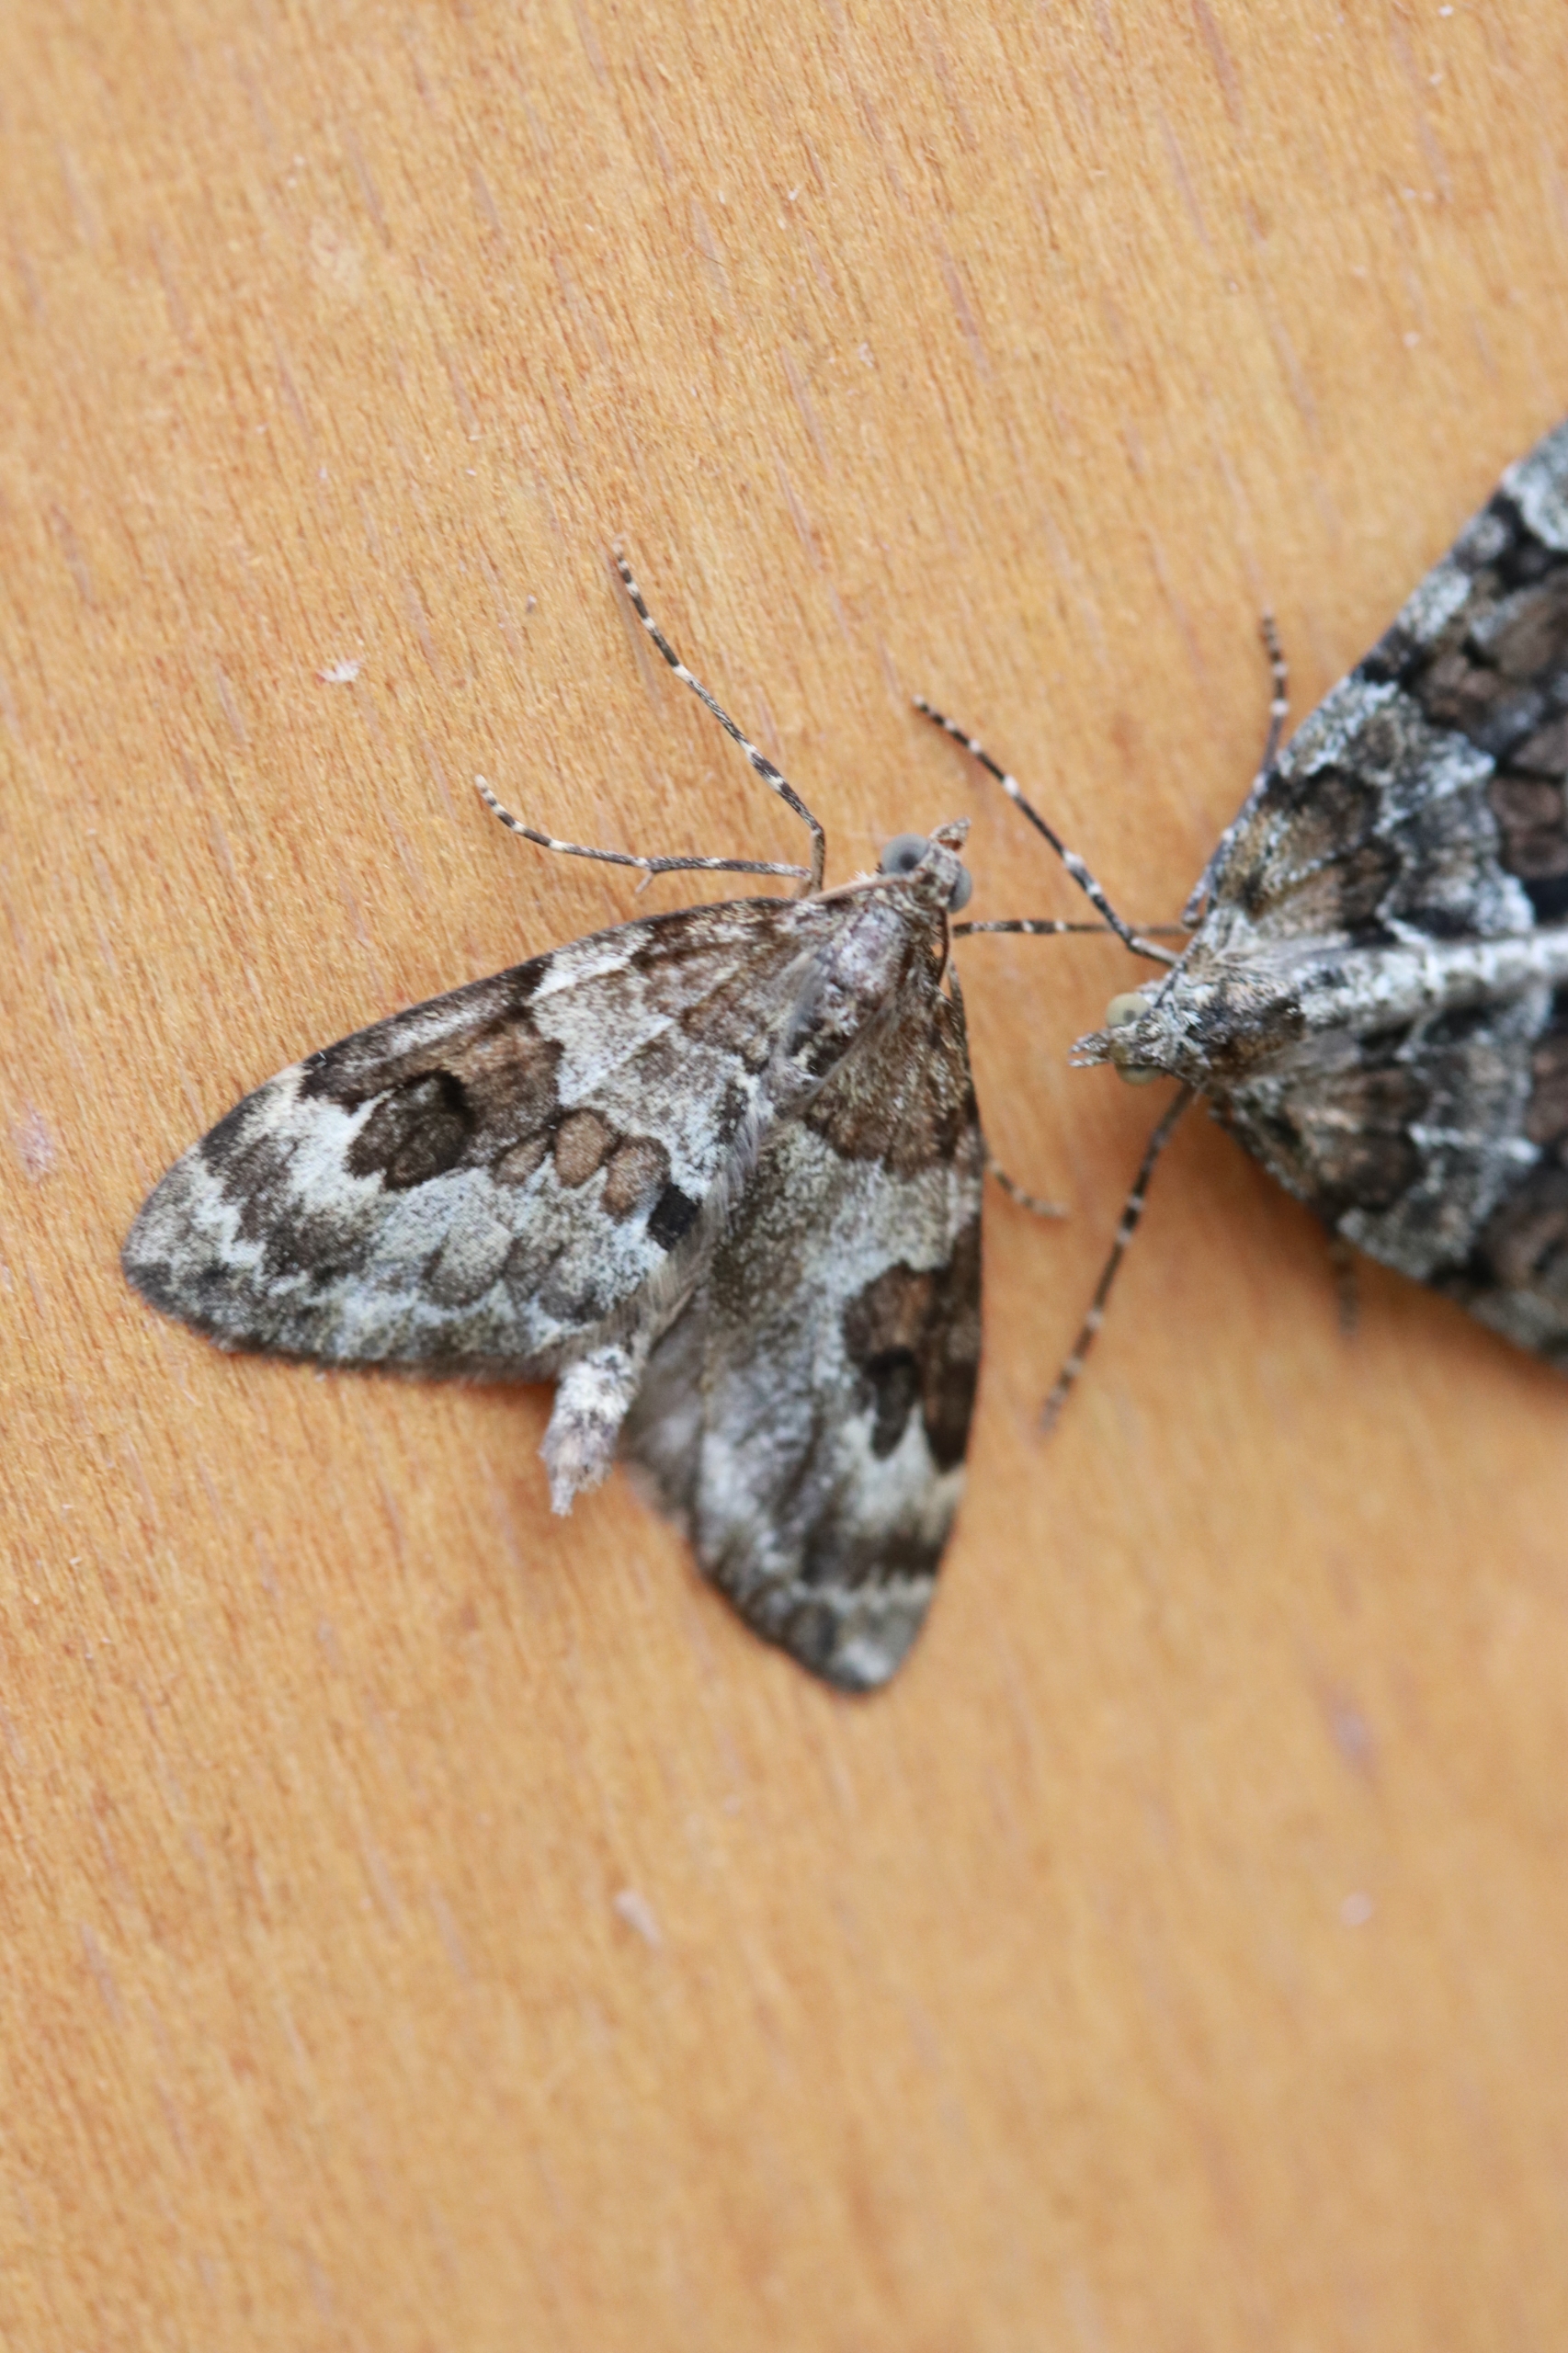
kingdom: Animalia
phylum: Arthropoda
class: Insecta
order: Lepidoptera
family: Geometridae
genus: Thera
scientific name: Thera britannica
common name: Ædelgranmåler
